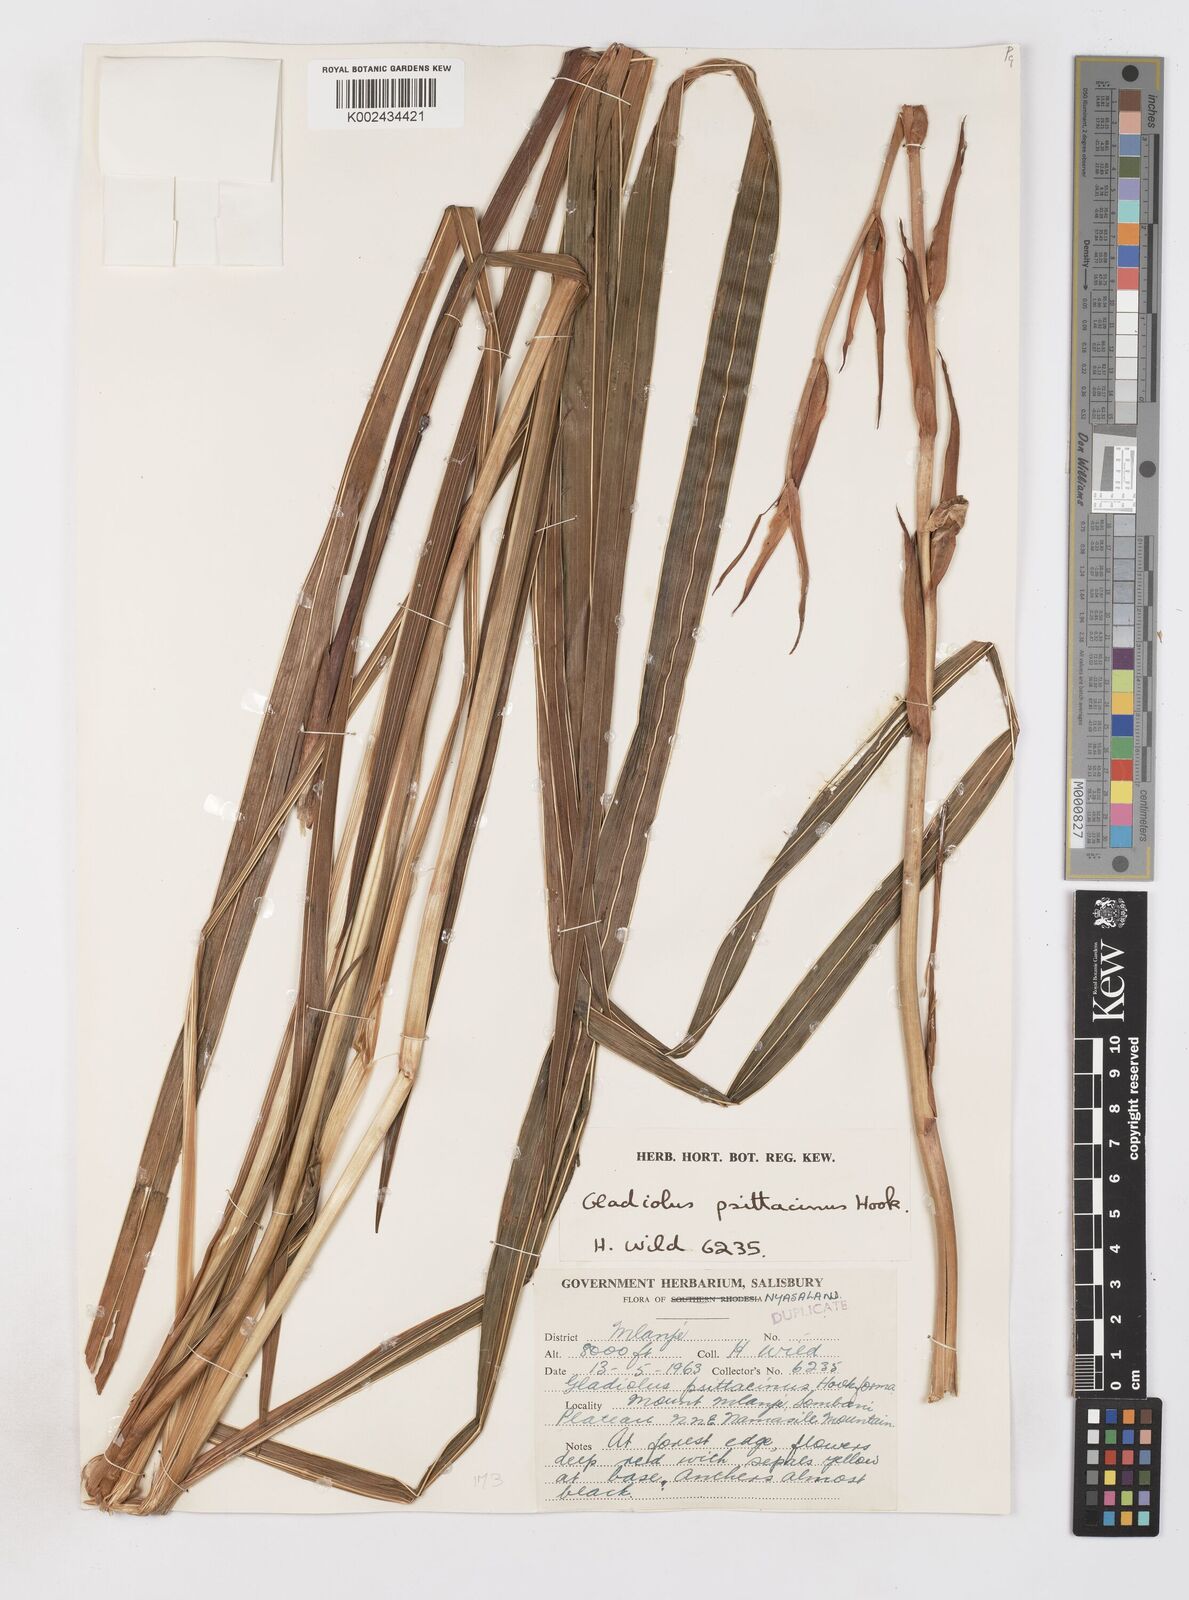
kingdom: Plantae
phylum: Tracheophyta
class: Liliopsida
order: Asparagales
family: Iridaceae
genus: Gladiolus
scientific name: Gladiolus dalenii
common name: Cornflag
